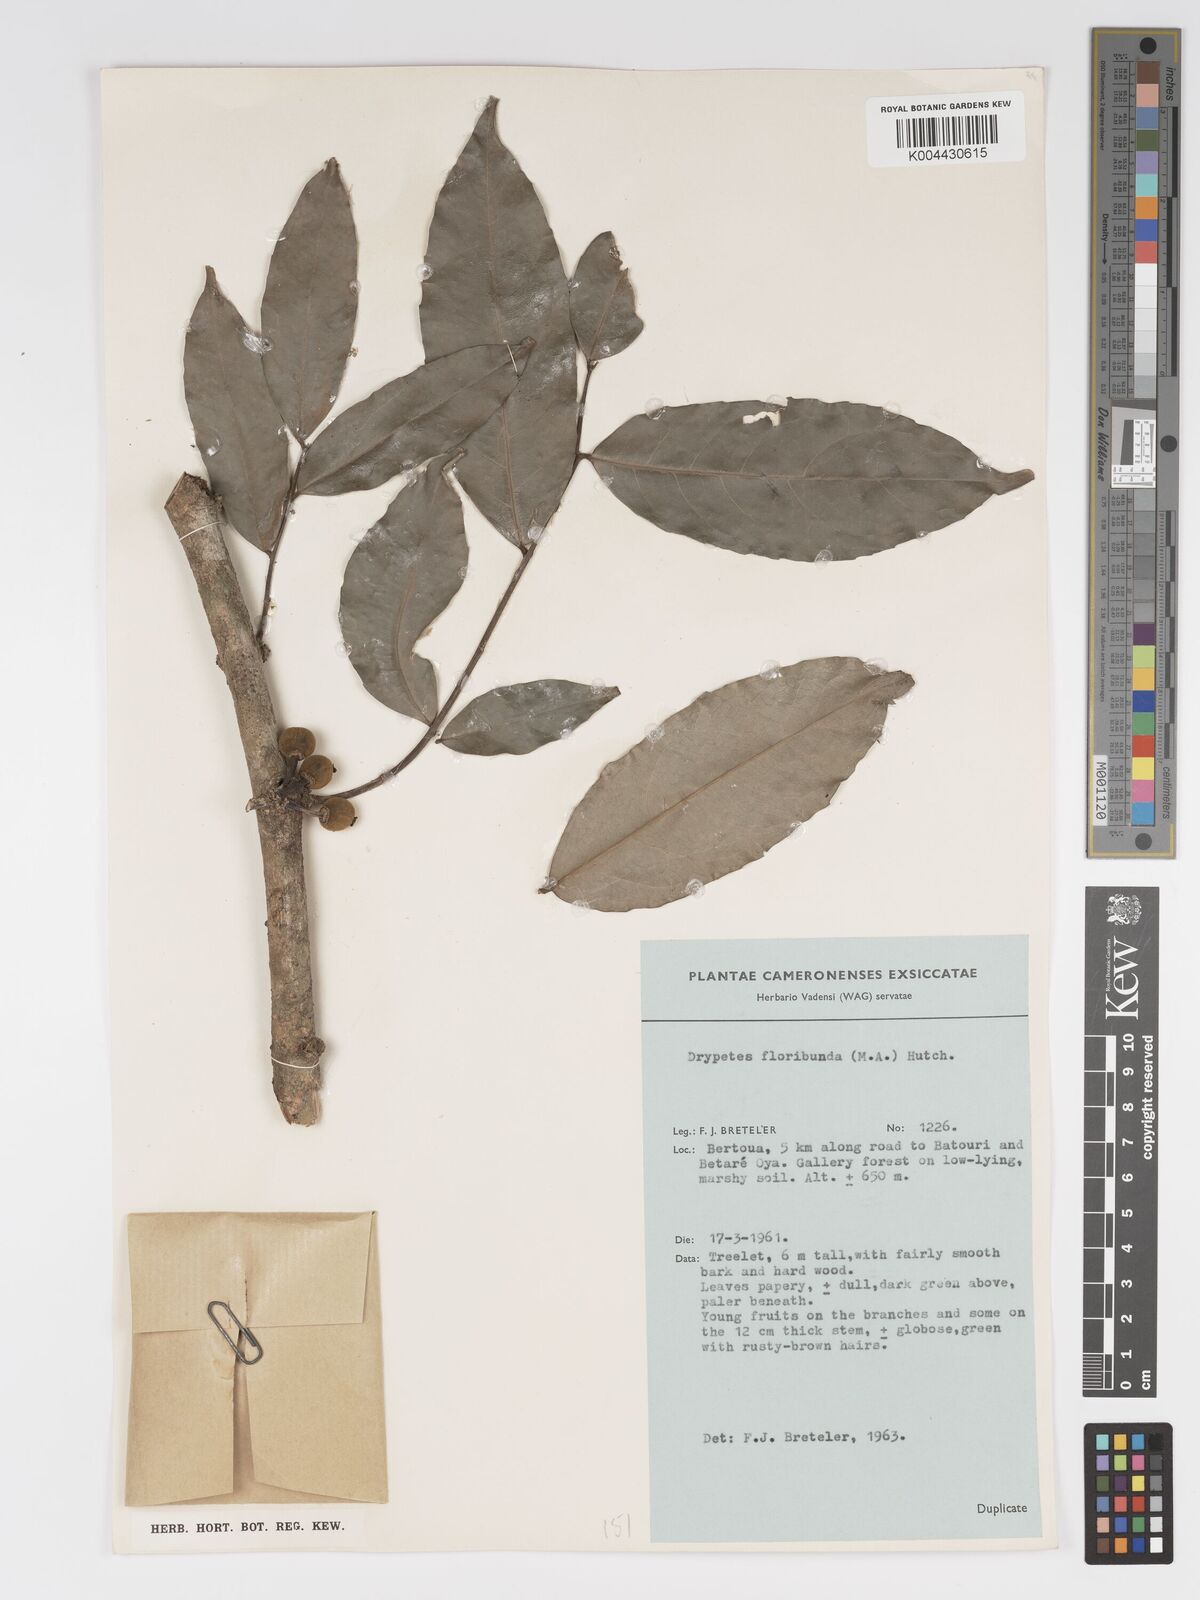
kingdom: Plantae
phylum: Tracheophyta
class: Magnoliopsida
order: Malpighiales
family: Putranjivaceae
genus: Drypetes
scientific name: Drypetes floribunda
